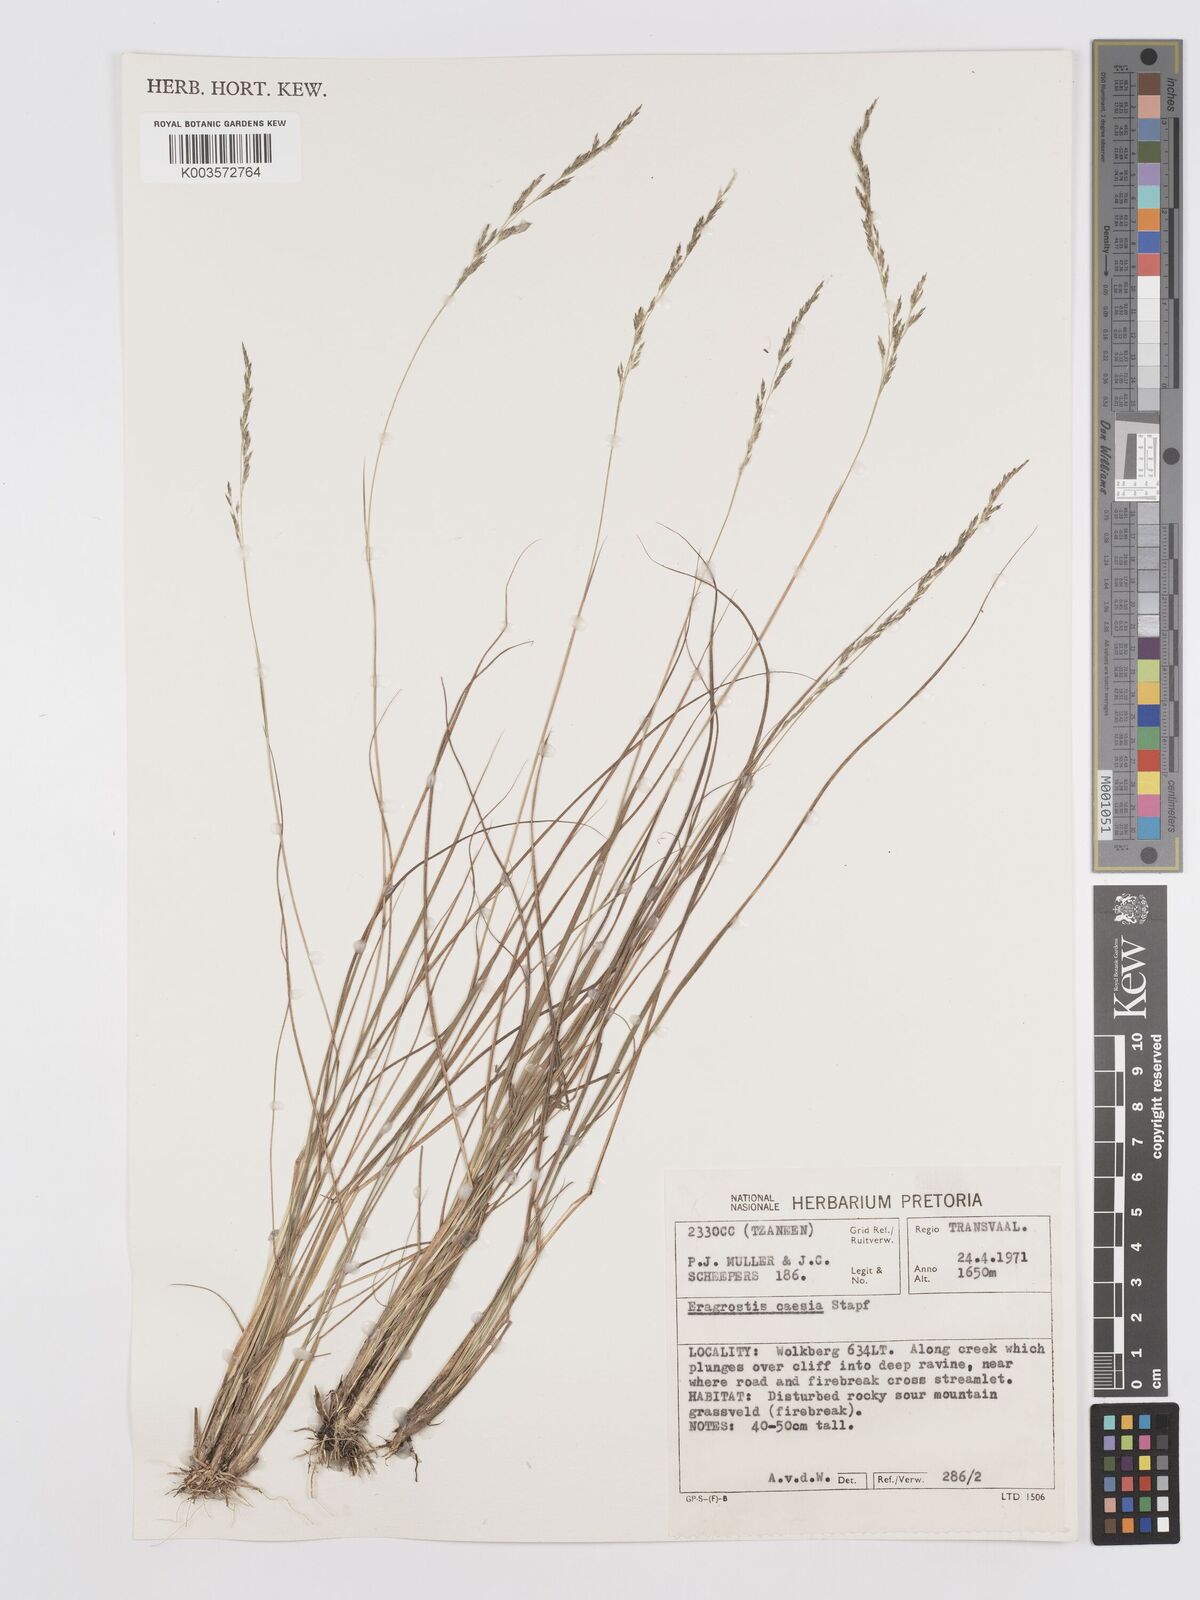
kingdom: Plantae
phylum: Tracheophyta
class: Liliopsida
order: Poales
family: Poaceae
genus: Eragrostis
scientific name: Eragrostis caesia
